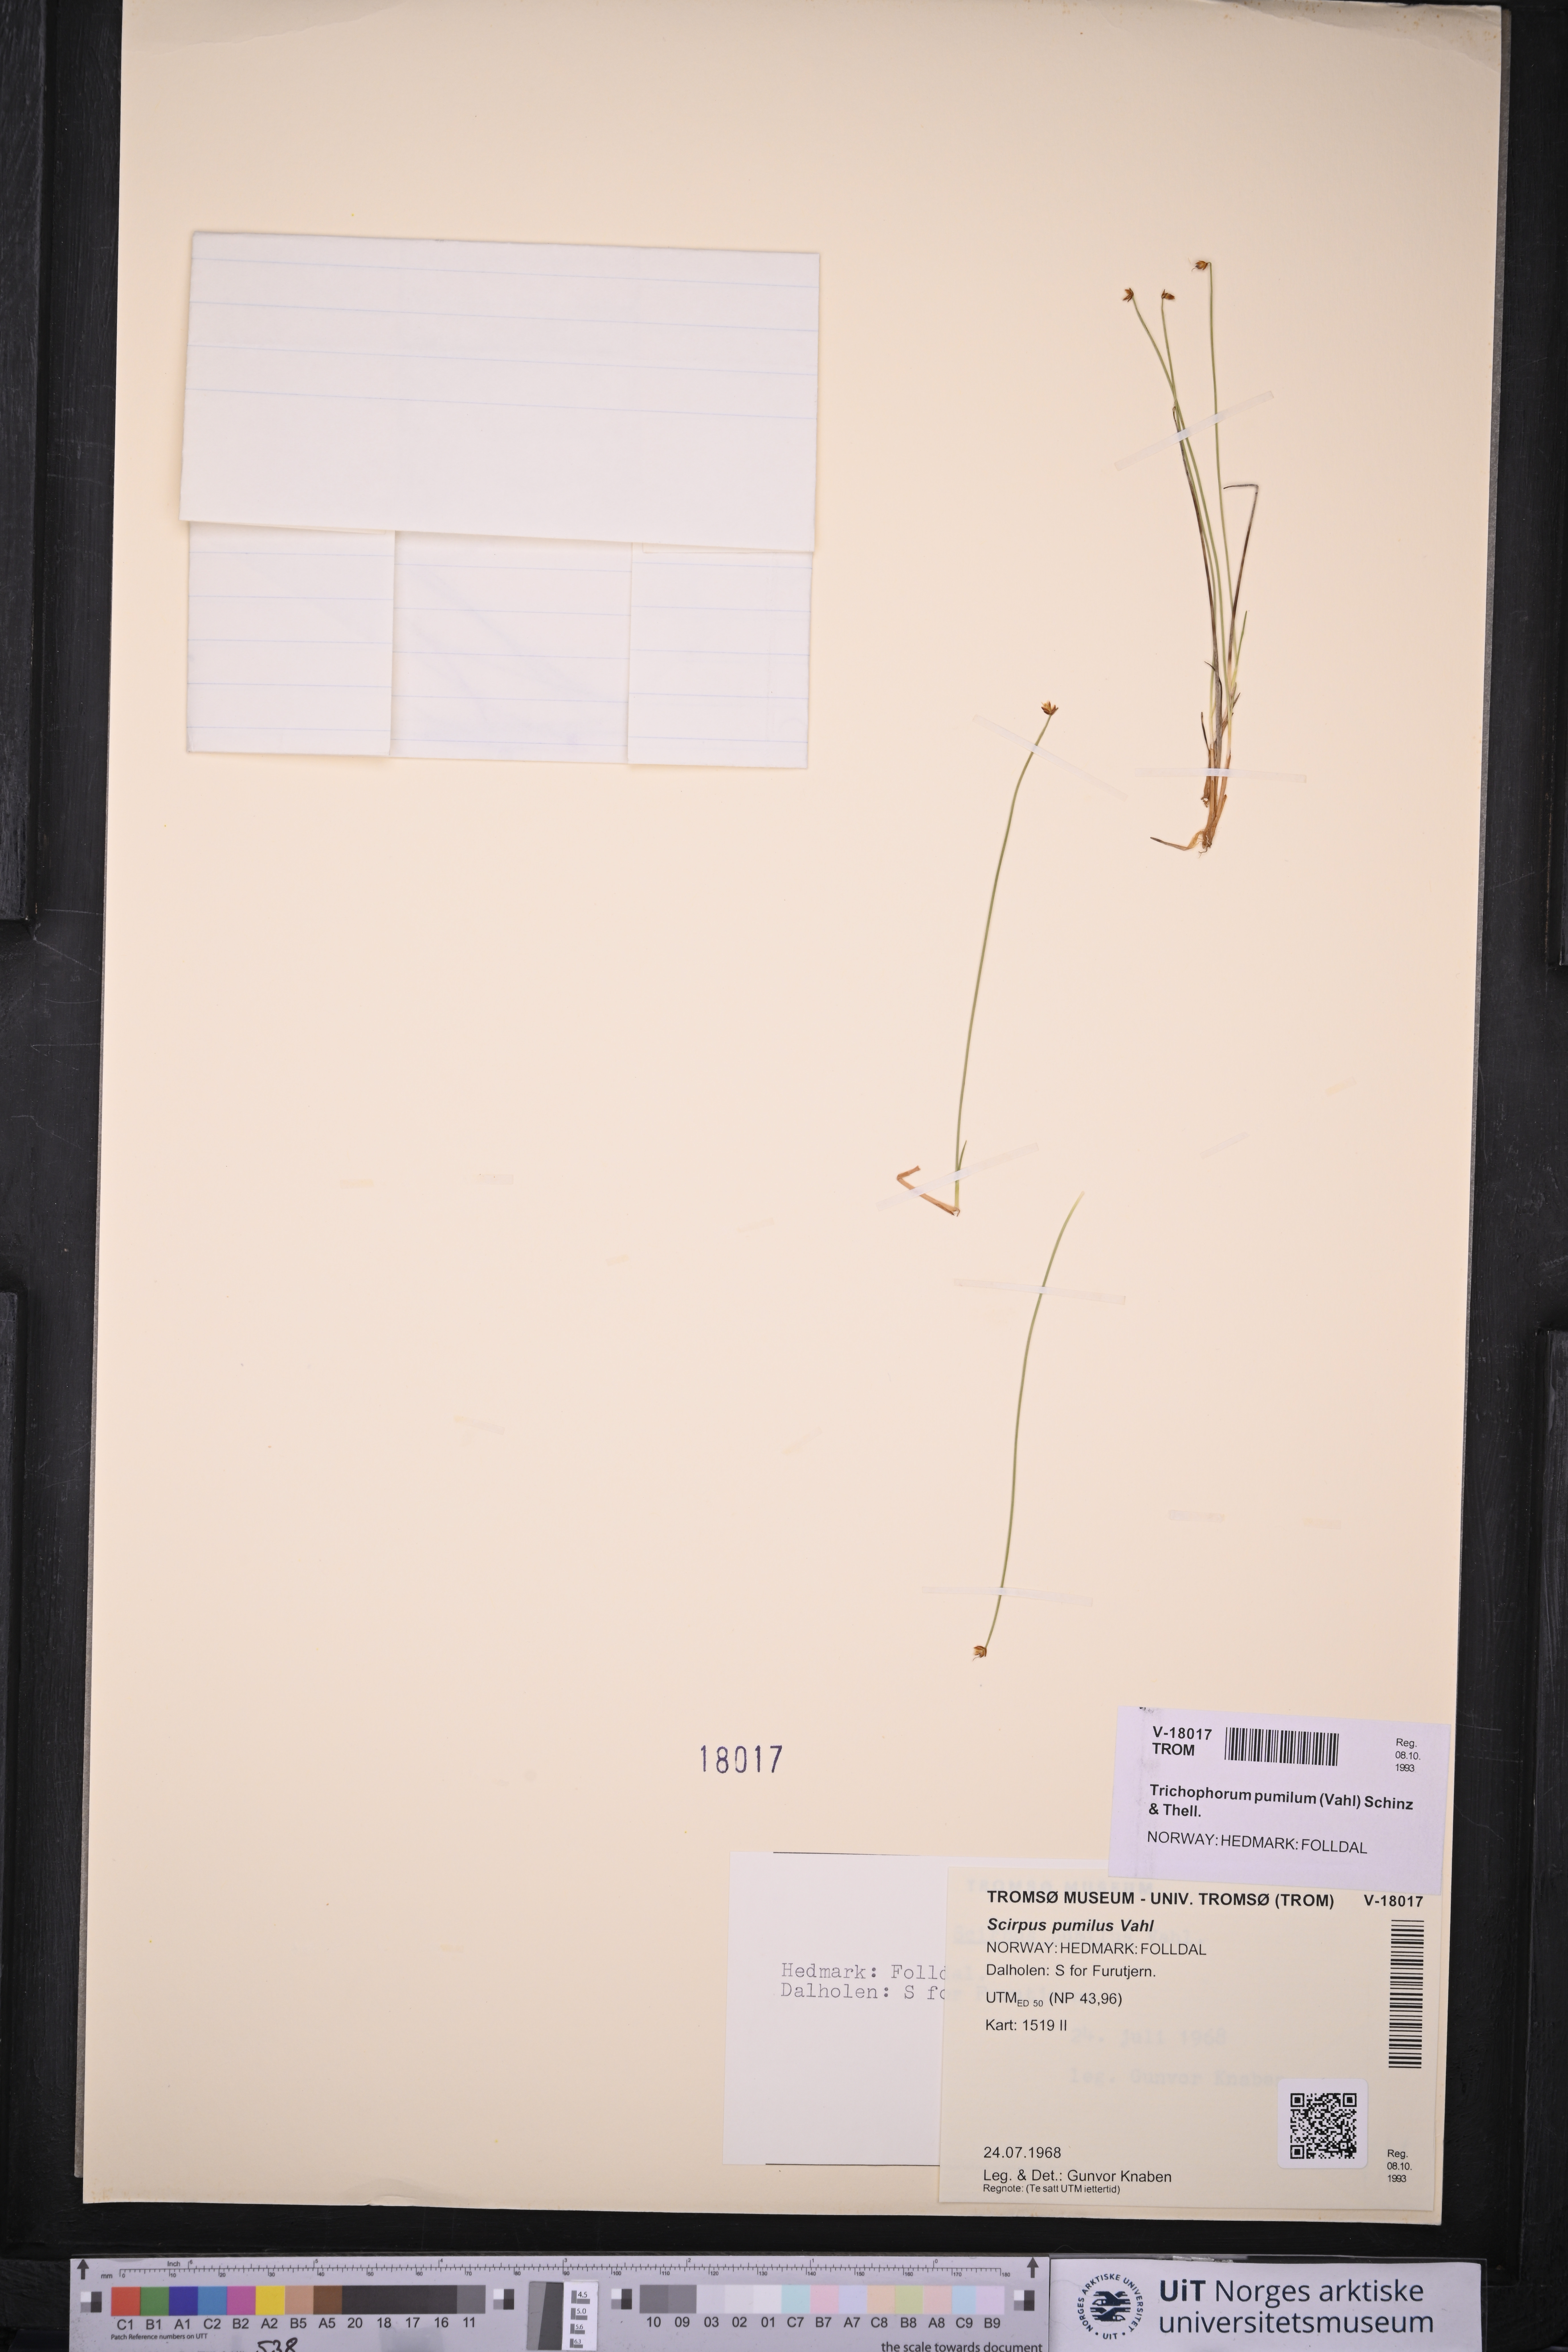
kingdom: Plantae
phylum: Tracheophyta
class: Liliopsida
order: Poales
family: Cyperaceae
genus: Trichophorum
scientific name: Trichophorum pumilum
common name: Rolland's bulrush
